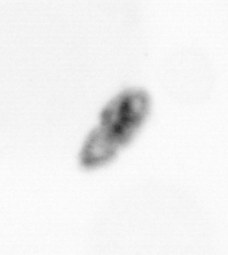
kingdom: Animalia
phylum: Arthropoda
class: Copepoda
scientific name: Copepoda
